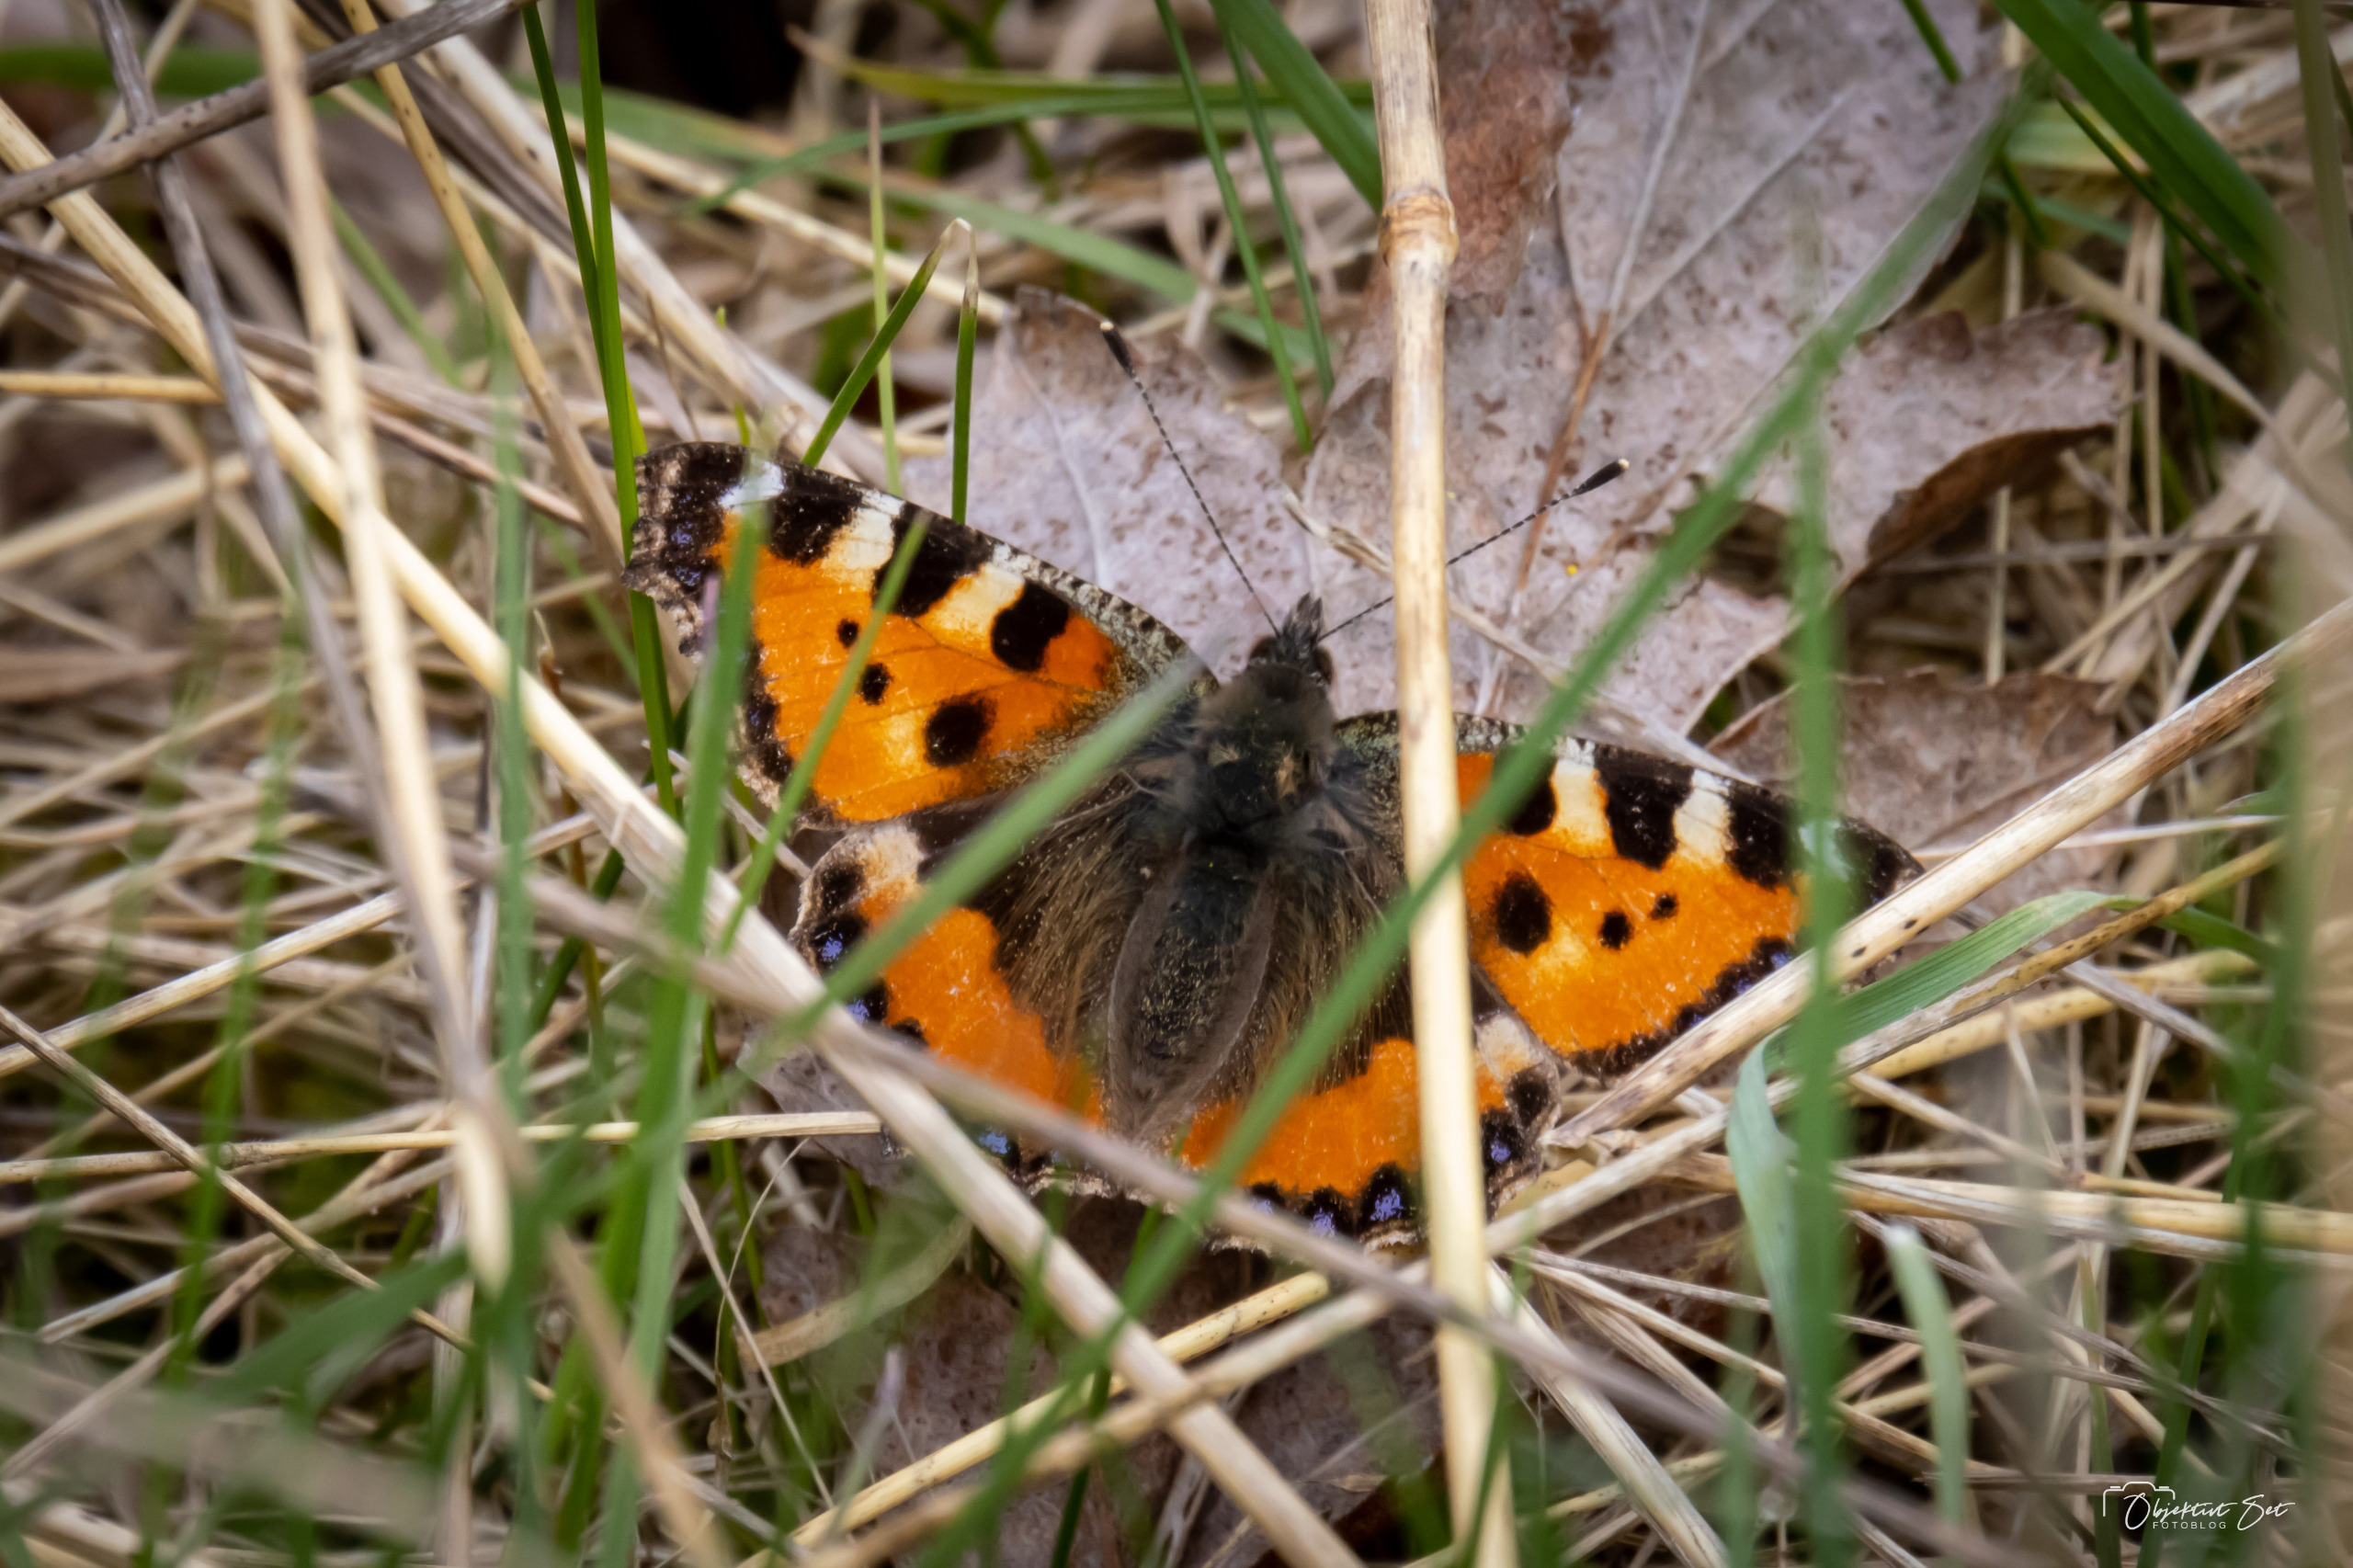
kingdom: Animalia
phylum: Arthropoda
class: Insecta
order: Lepidoptera
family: Nymphalidae
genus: Aglais
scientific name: Aglais urticae
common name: Nældens takvinge
